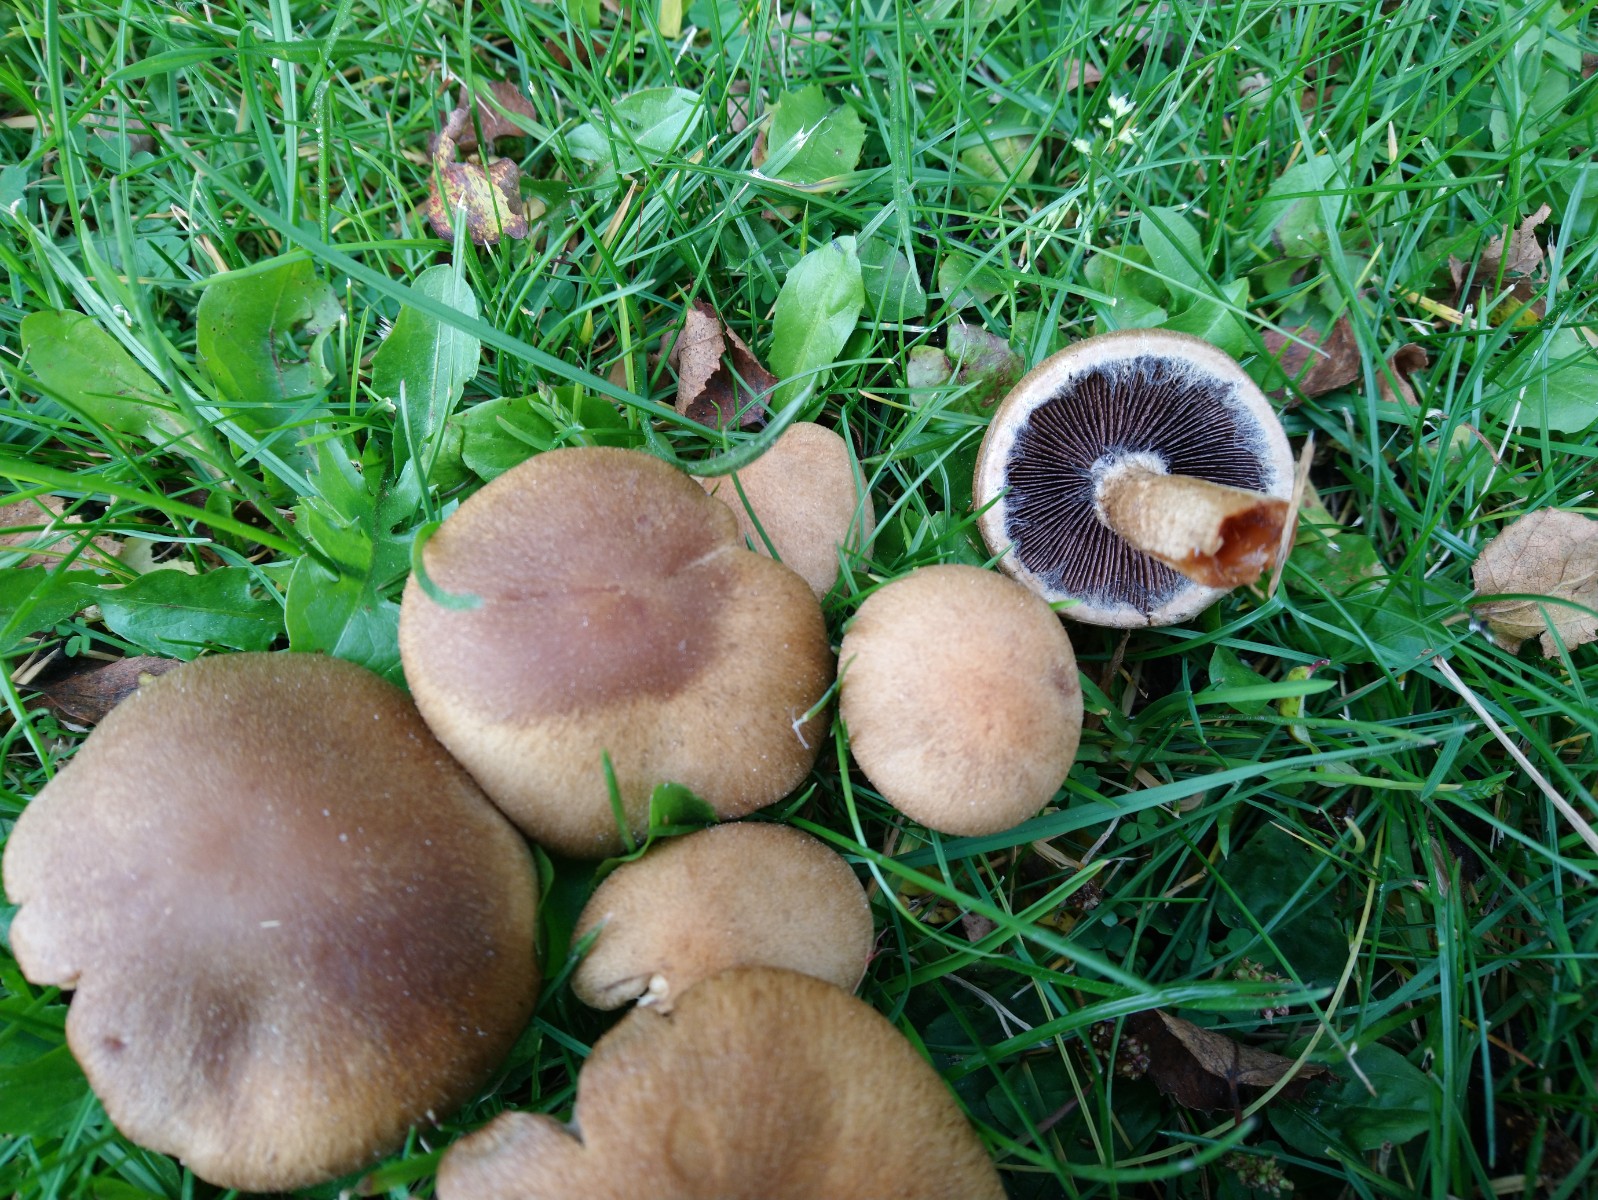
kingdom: Fungi
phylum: Basidiomycota
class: Agaricomycetes
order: Agaricales
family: Psathyrellaceae
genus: Lacrymaria
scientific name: Lacrymaria lacrymabunda
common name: grædende mørkhat
